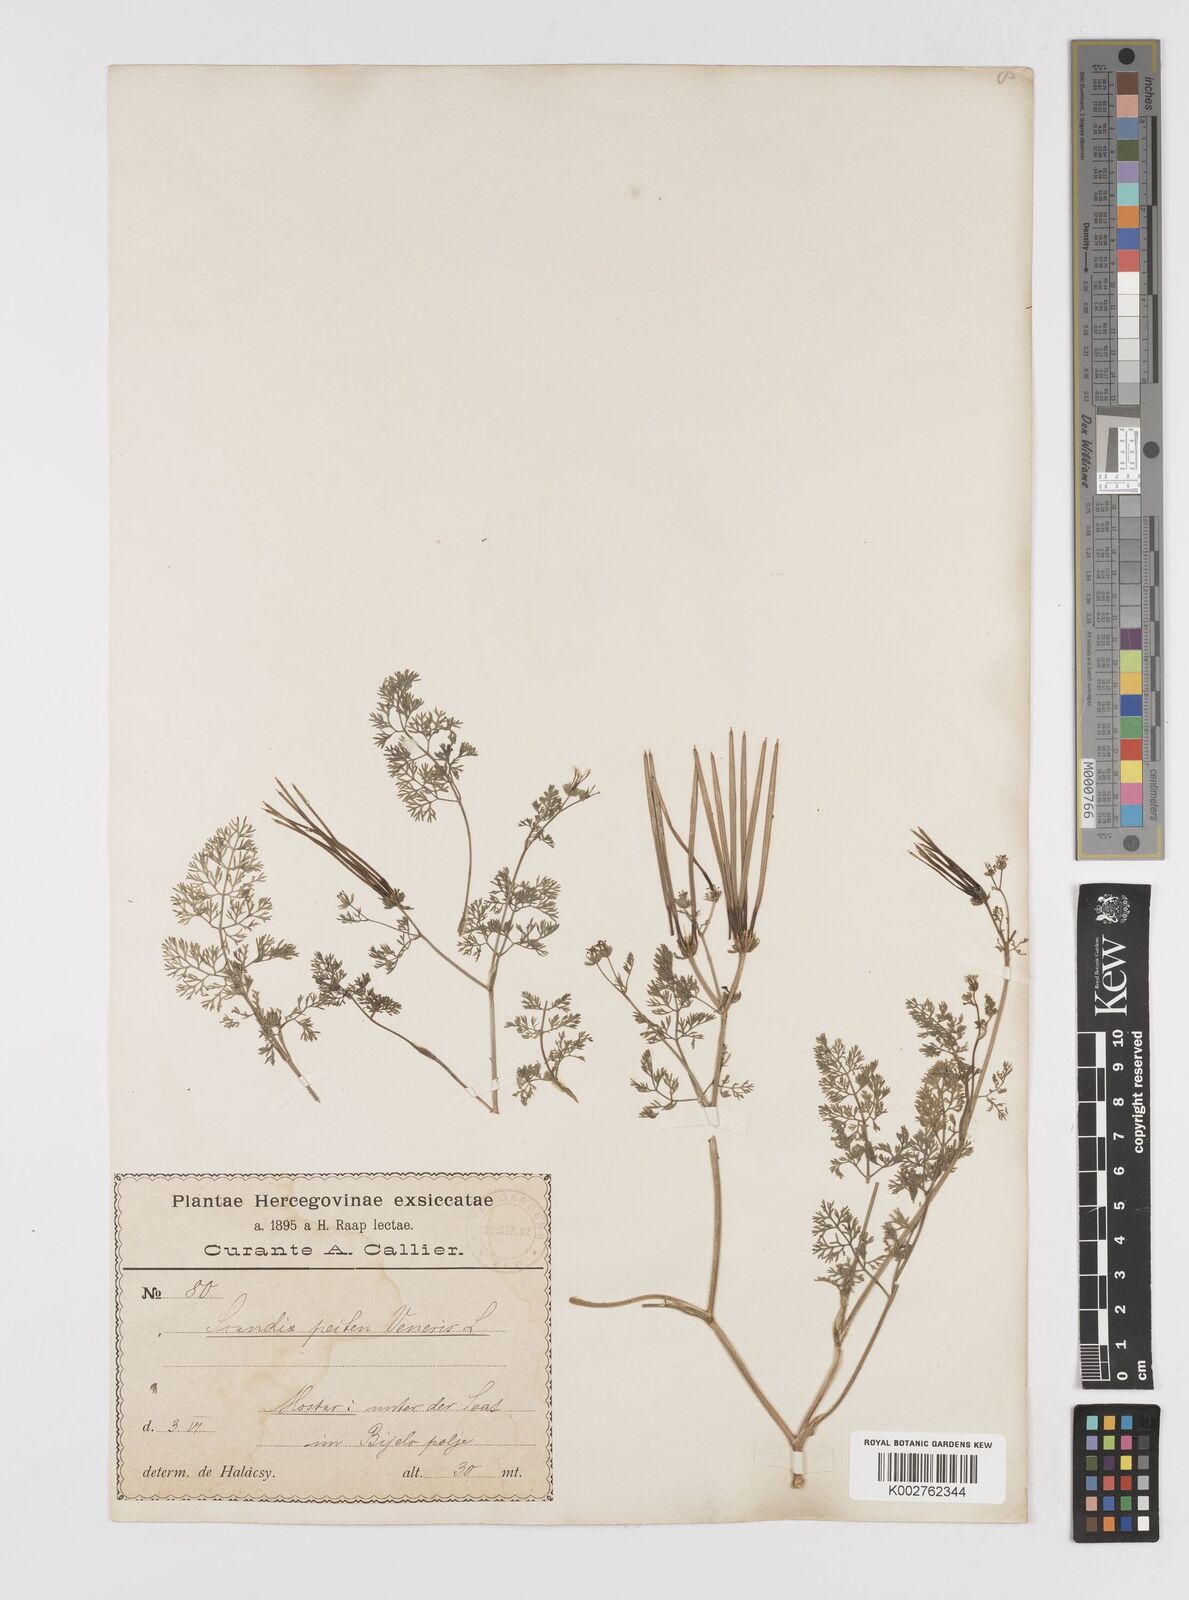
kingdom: Plantae
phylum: Tracheophyta
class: Magnoliopsida
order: Apiales
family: Apiaceae
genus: Scandix
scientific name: Scandix pecten-veneris
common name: Shepherd's-needle
